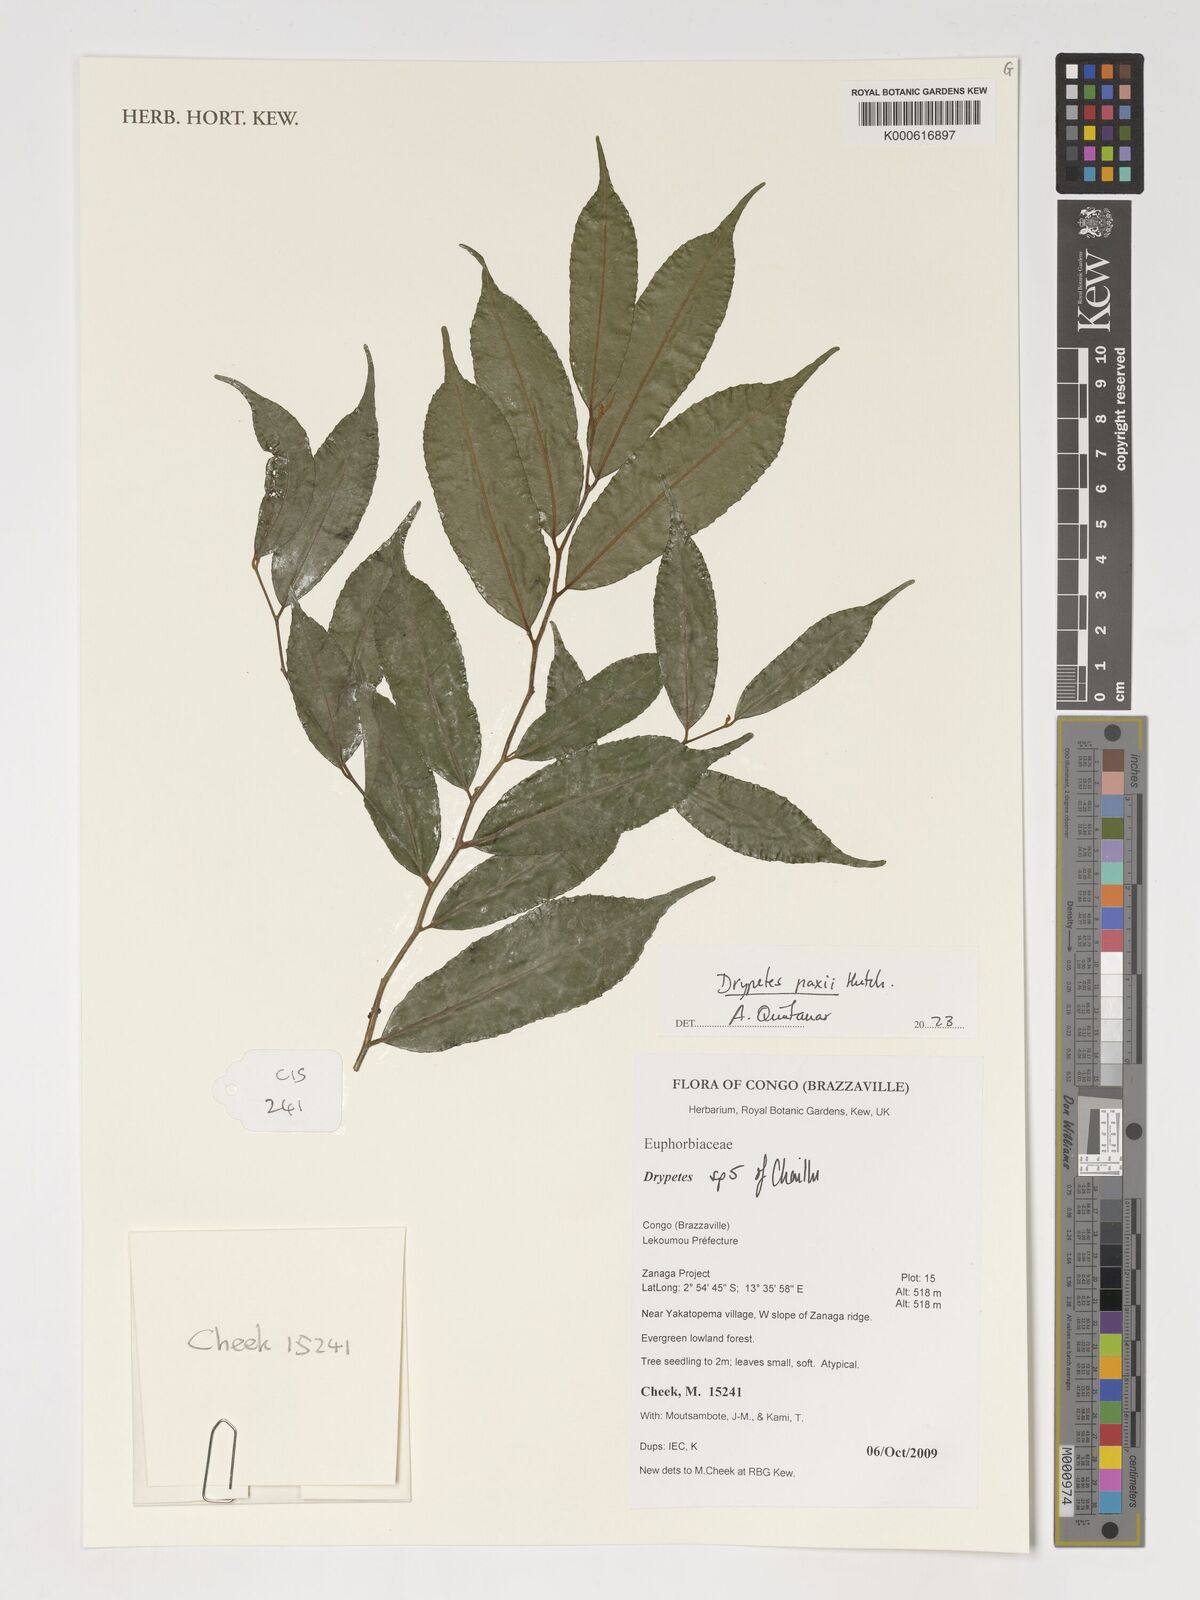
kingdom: Plantae
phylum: Tracheophyta
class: Magnoliopsida
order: Malpighiales
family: Putranjivaceae
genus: Drypetes
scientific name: Drypetes paxii
